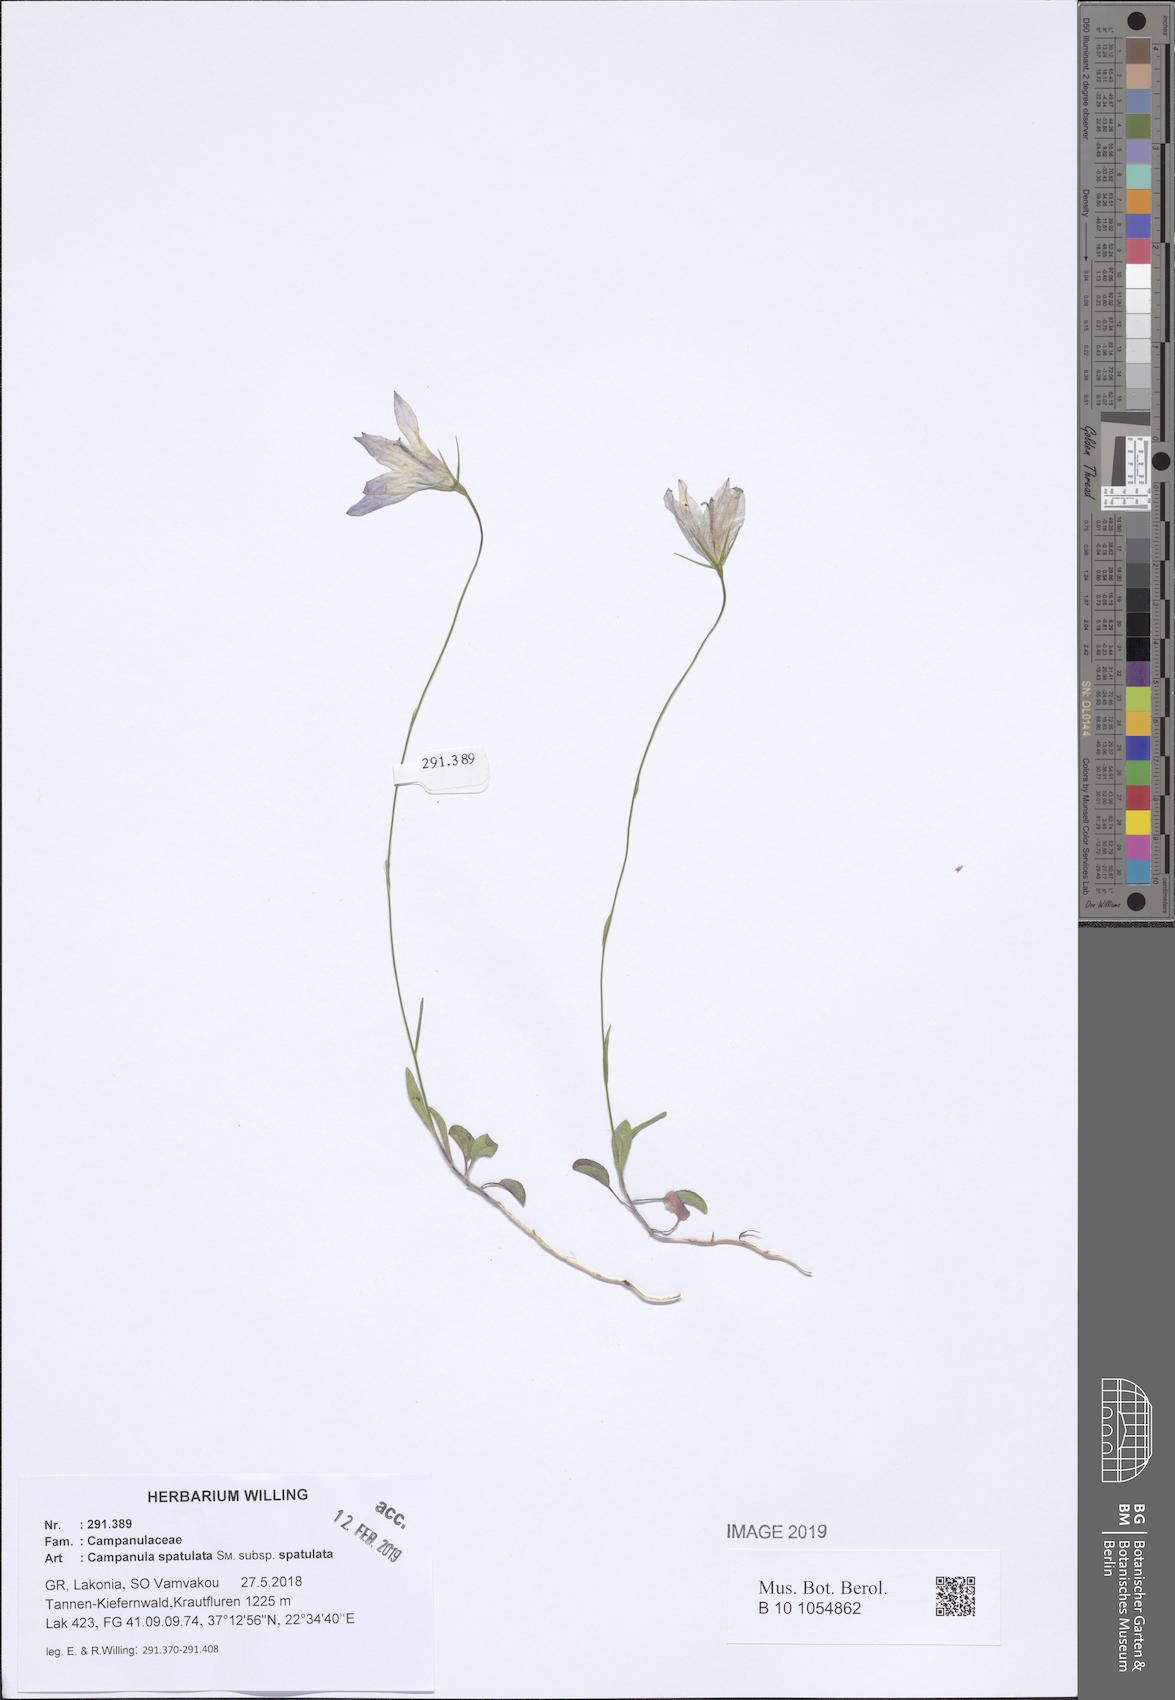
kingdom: Plantae
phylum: Tracheophyta
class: Magnoliopsida
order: Asterales
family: Campanulaceae
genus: Campanula
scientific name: Campanula spatulata
